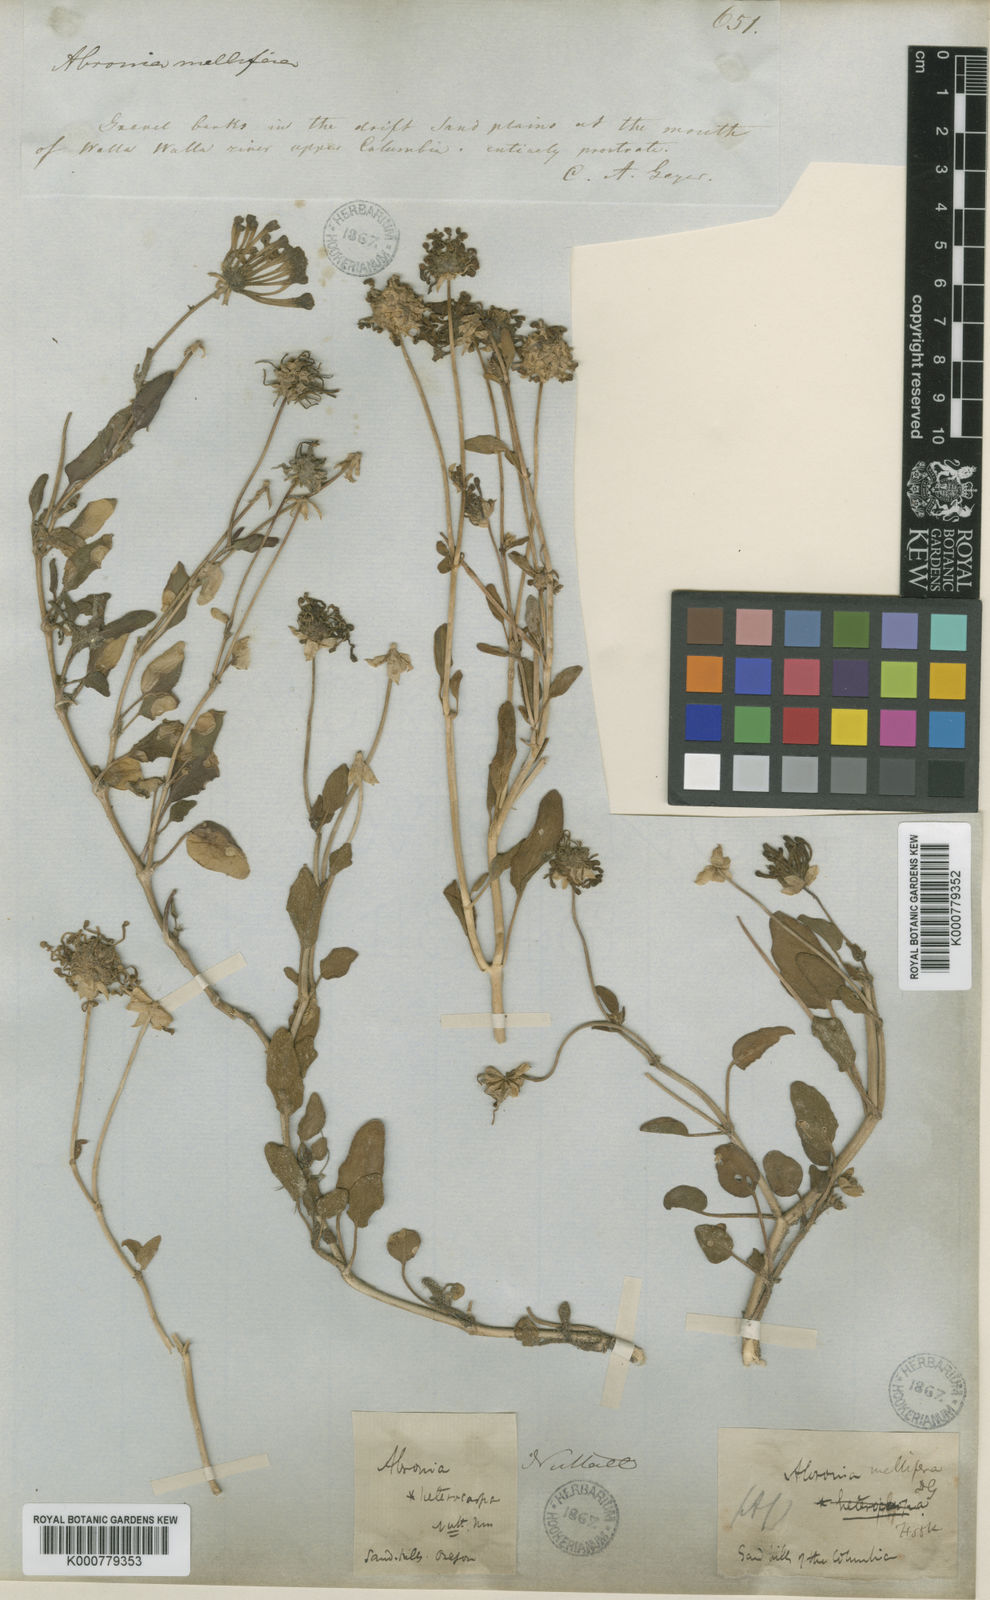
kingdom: Plantae
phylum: Tracheophyta
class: Magnoliopsida
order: Caryophyllales
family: Nyctaginaceae
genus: Abronia
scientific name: Abronia
